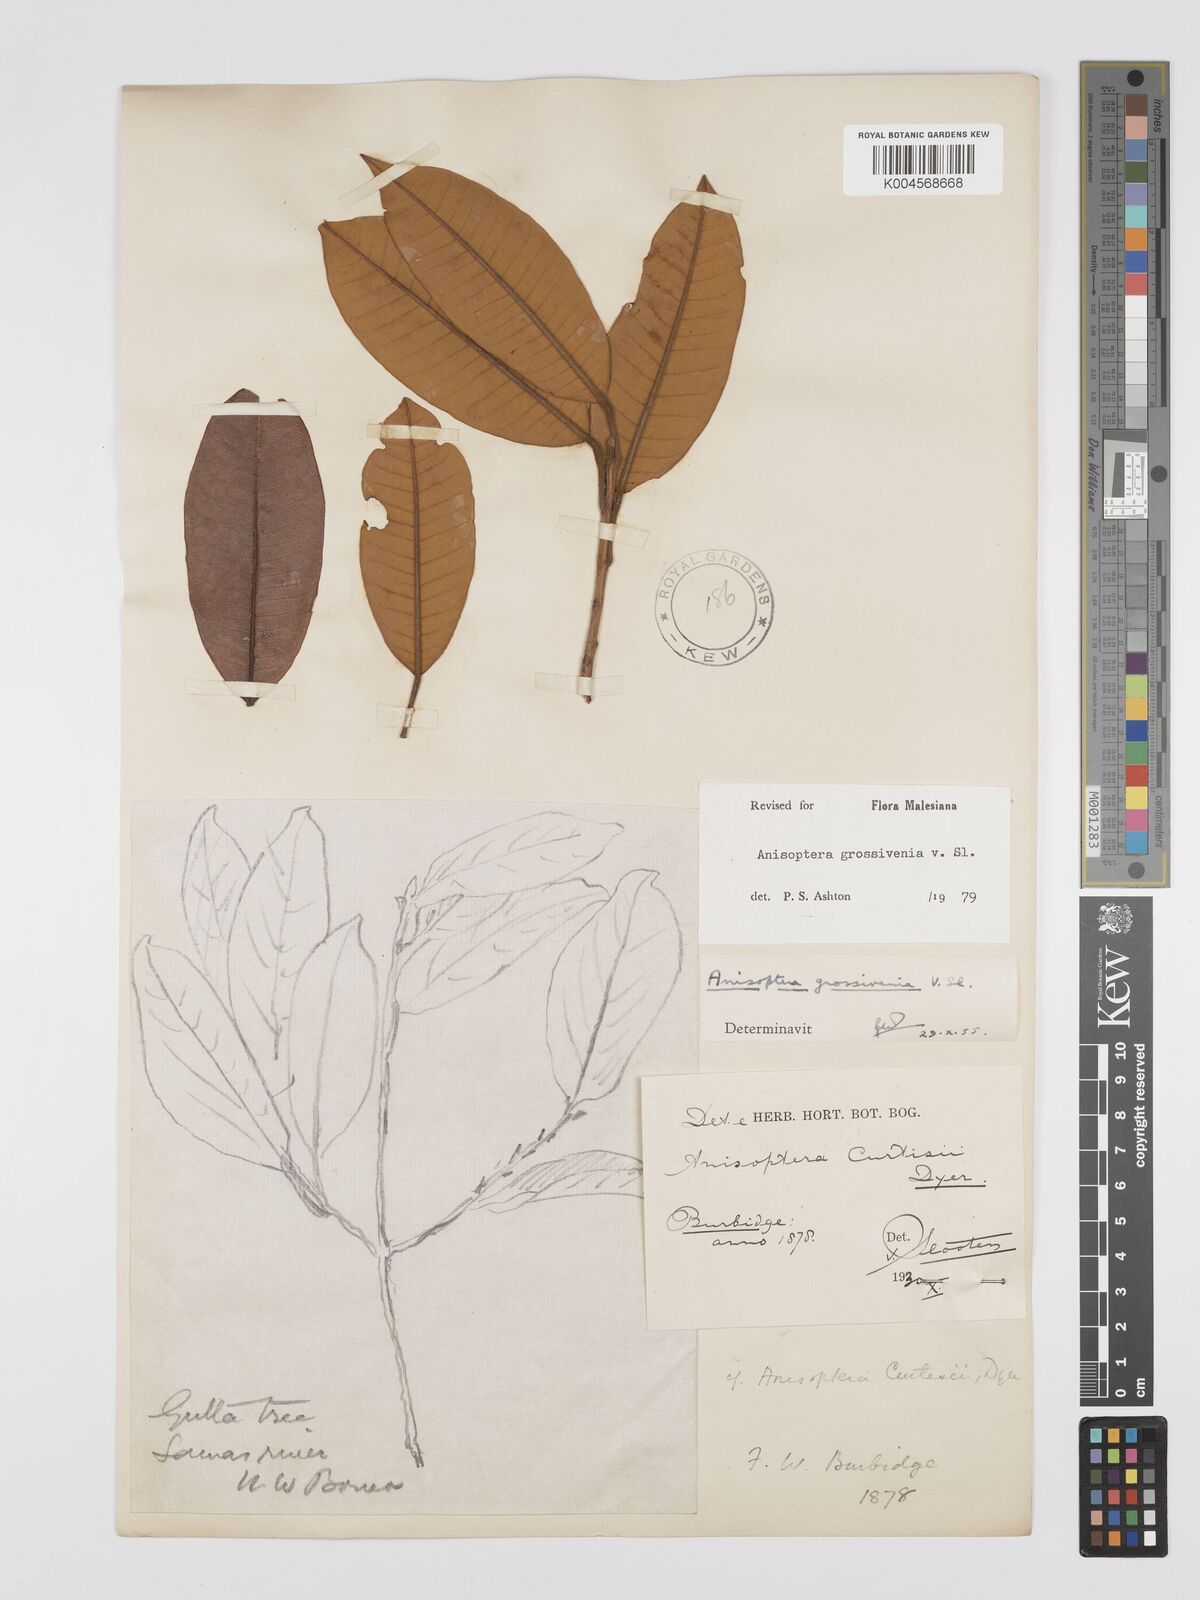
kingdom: Plantae
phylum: Tracheophyta
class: Magnoliopsida
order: Malvales
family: Dipterocarpaceae
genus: Anisoptera
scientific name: Anisoptera grossivenia
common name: Krabak
